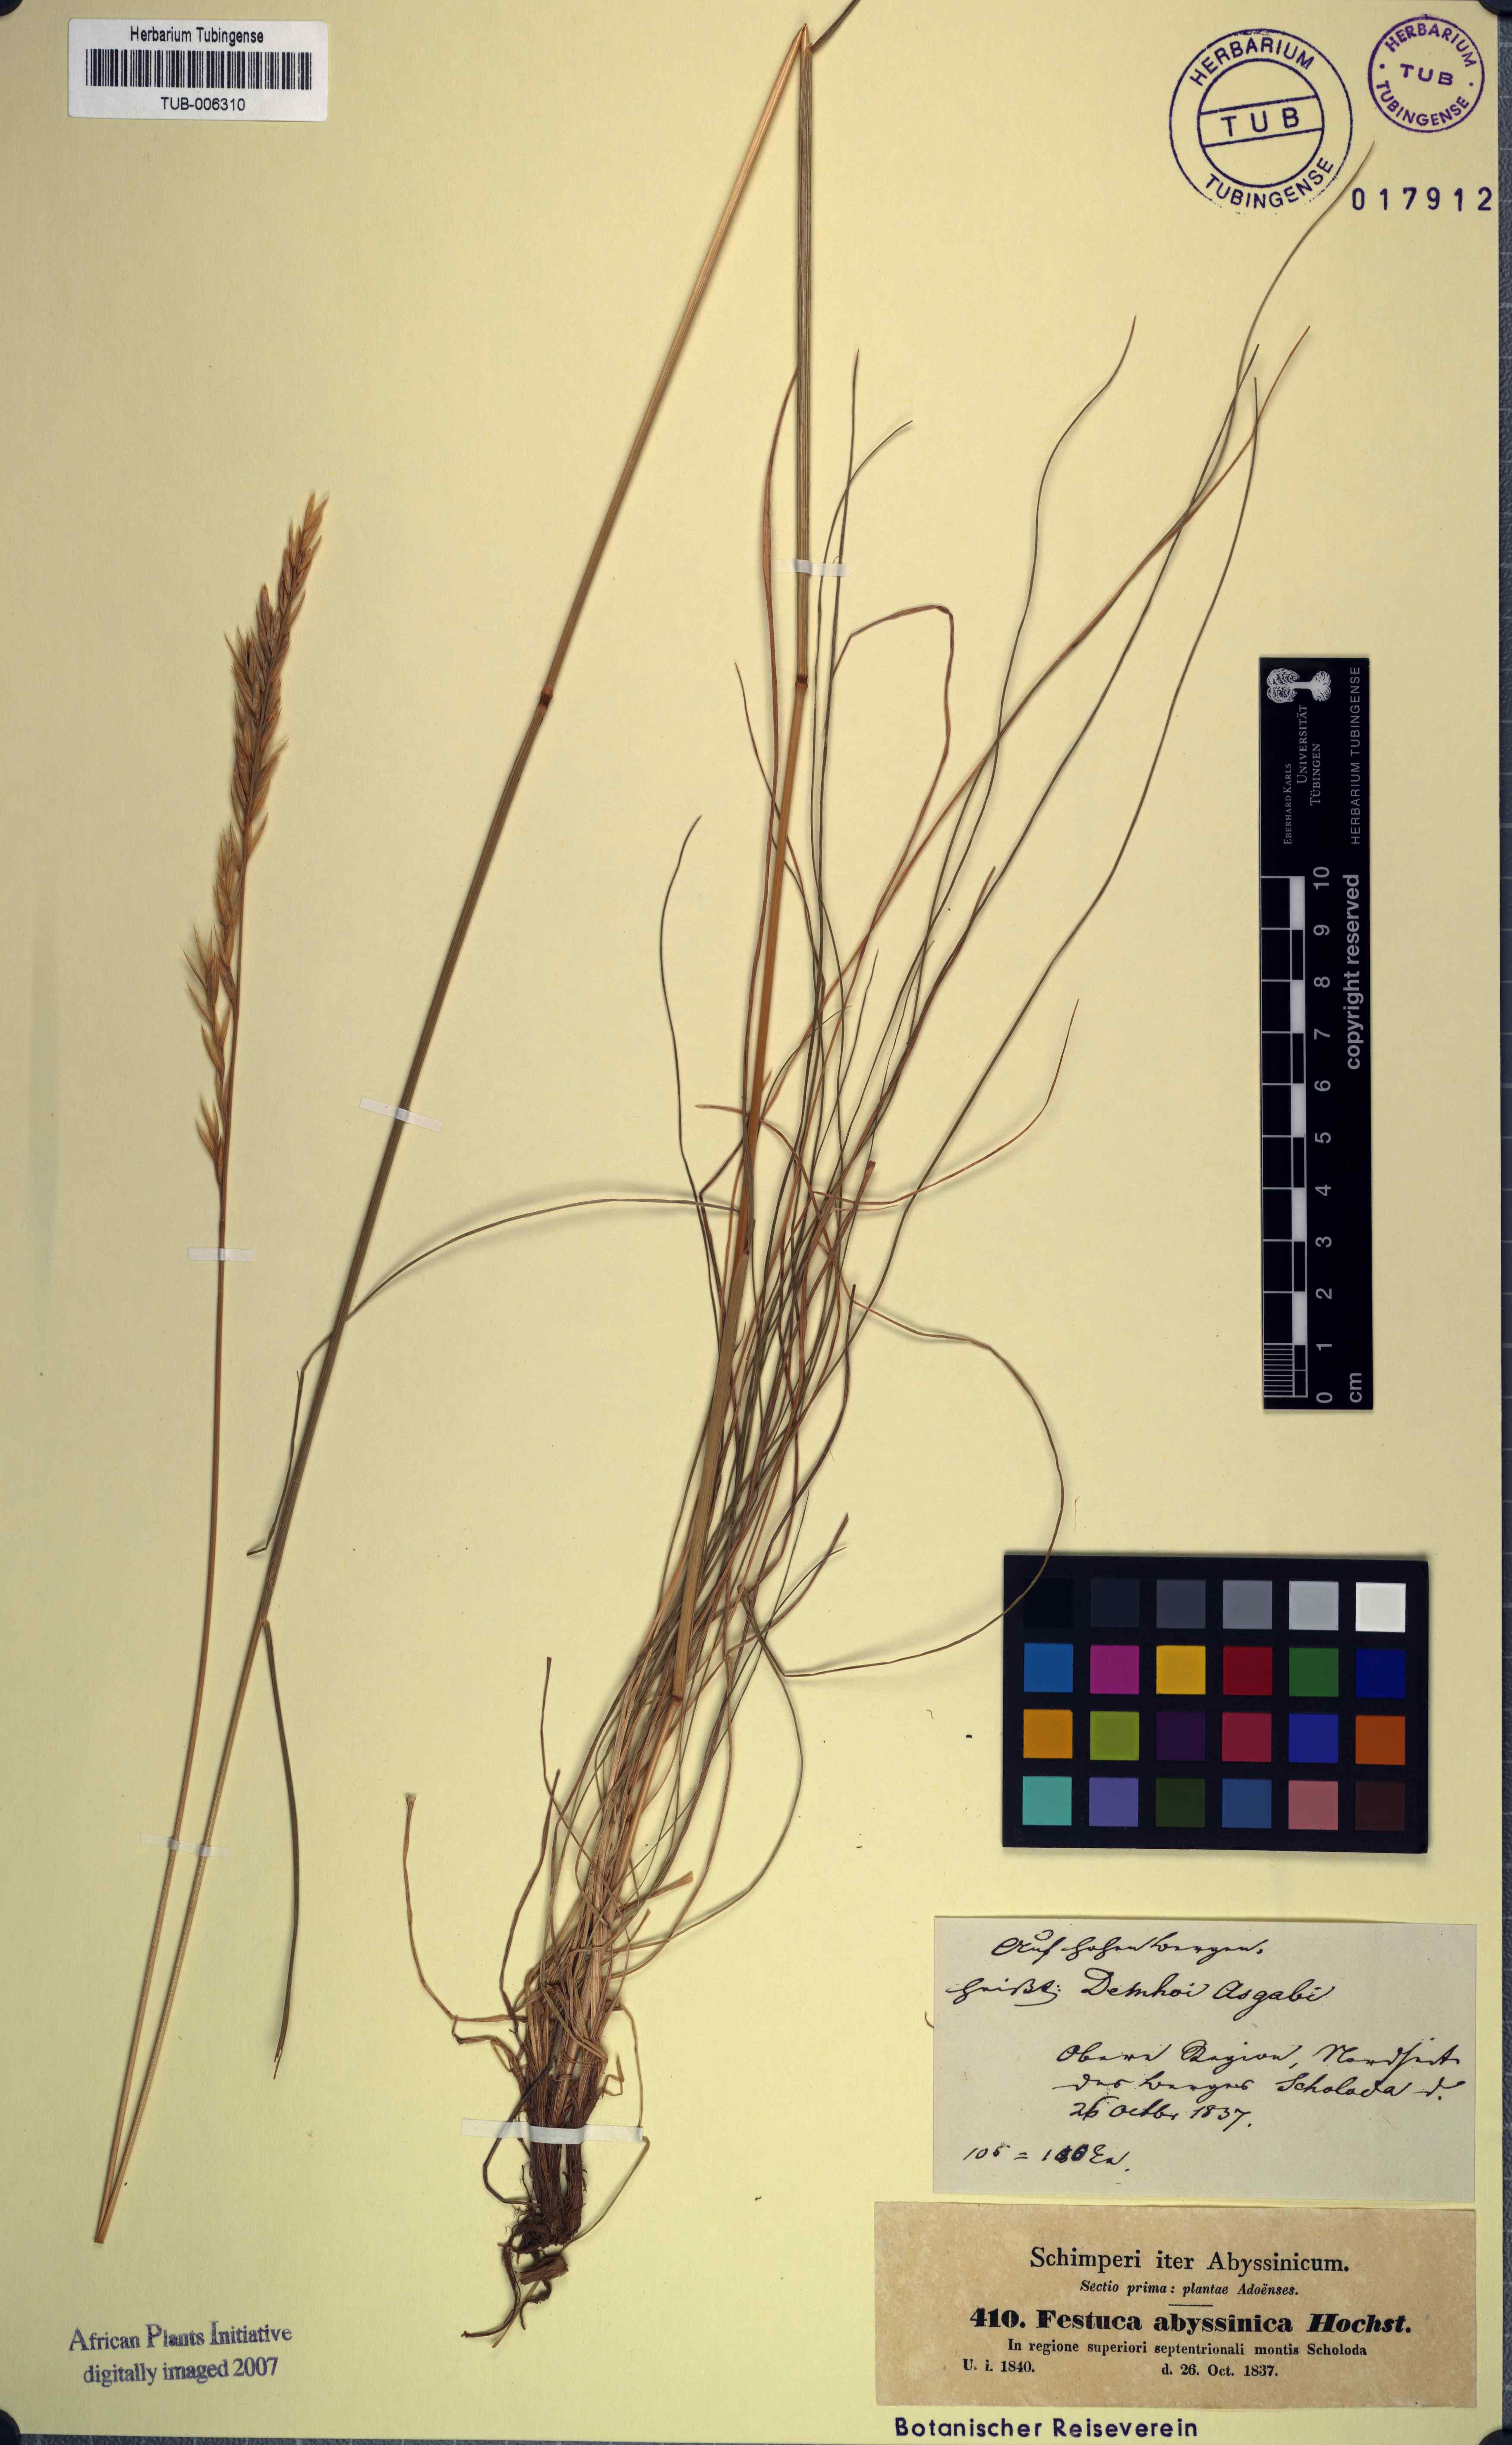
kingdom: Plantae
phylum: Tracheophyta
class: Liliopsida
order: Poales
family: Poaceae
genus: Festuca
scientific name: Festuca abyssinica
